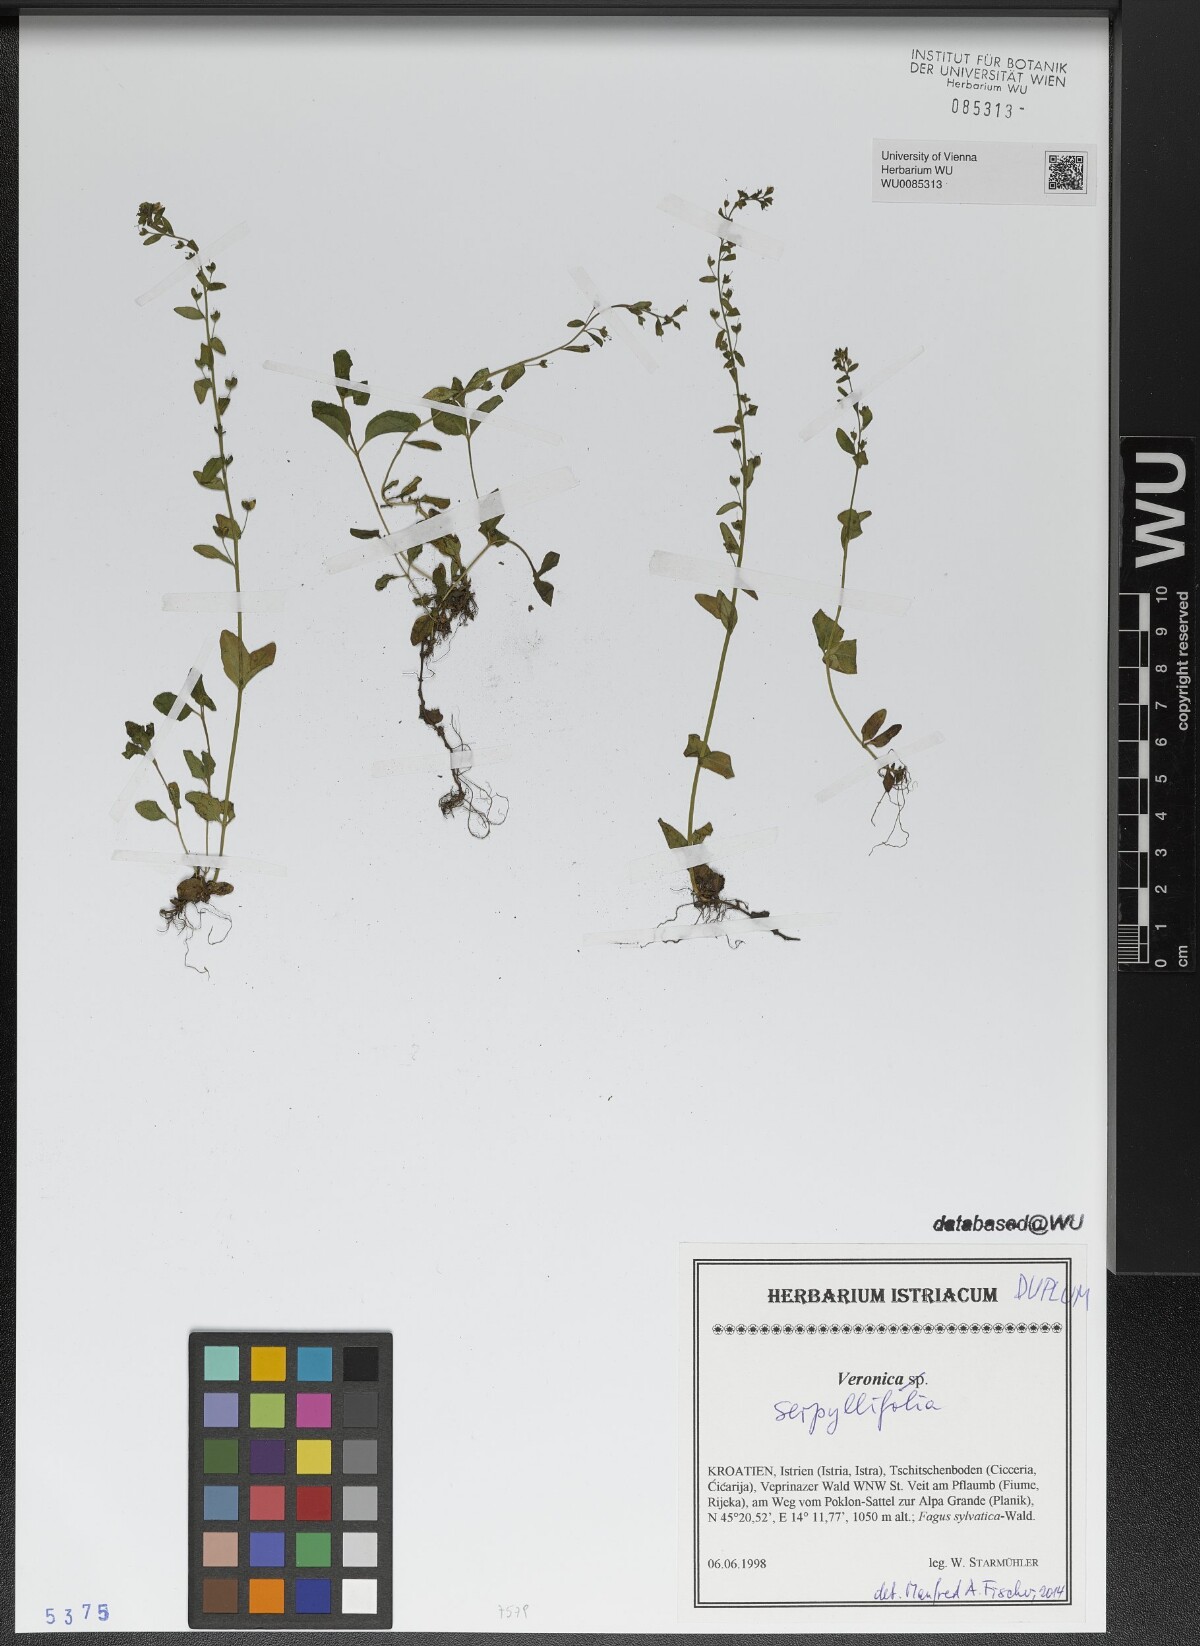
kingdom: Plantae
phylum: Tracheophyta
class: Magnoliopsida
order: Lamiales
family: Plantaginaceae
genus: Veronica
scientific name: Veronica serpyllifolia
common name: Thyme-leaved speedwell
